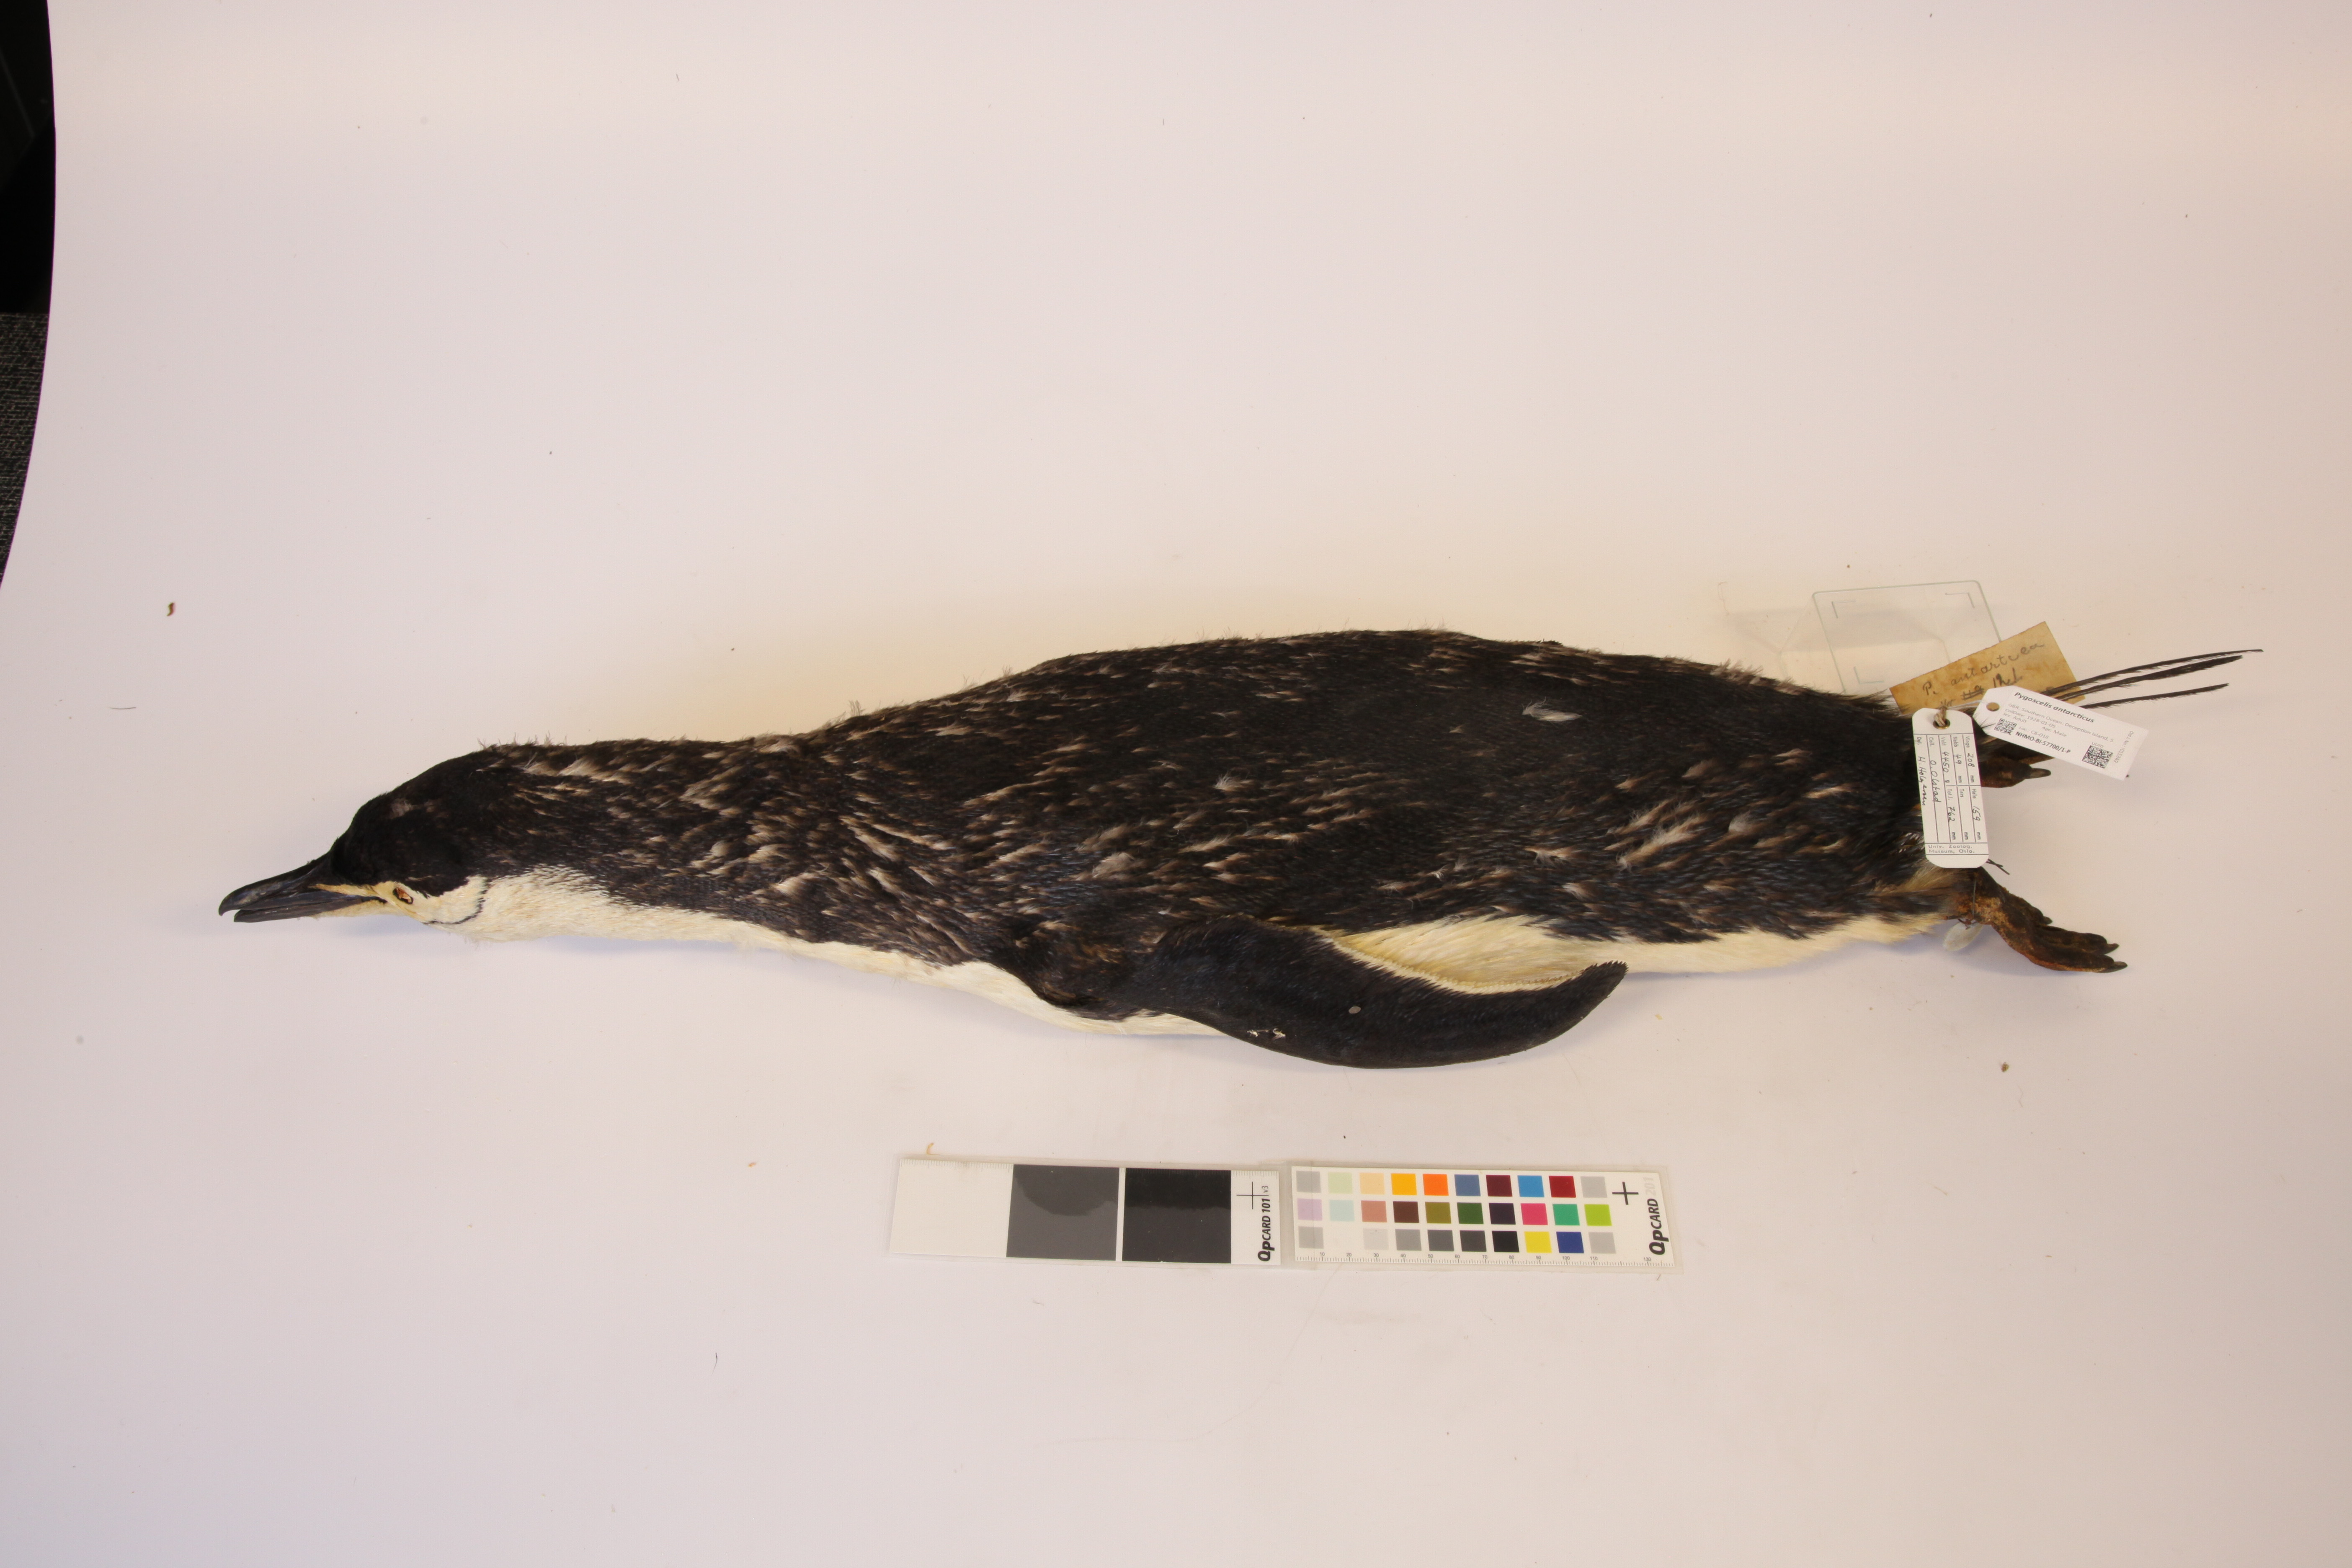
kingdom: Animalia
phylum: Chordata
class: Aves
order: Sphenisciformes
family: Spheniscidae
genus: Pygoscelis
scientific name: Pygoscelis antarcticus
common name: Chinstrap penguin
